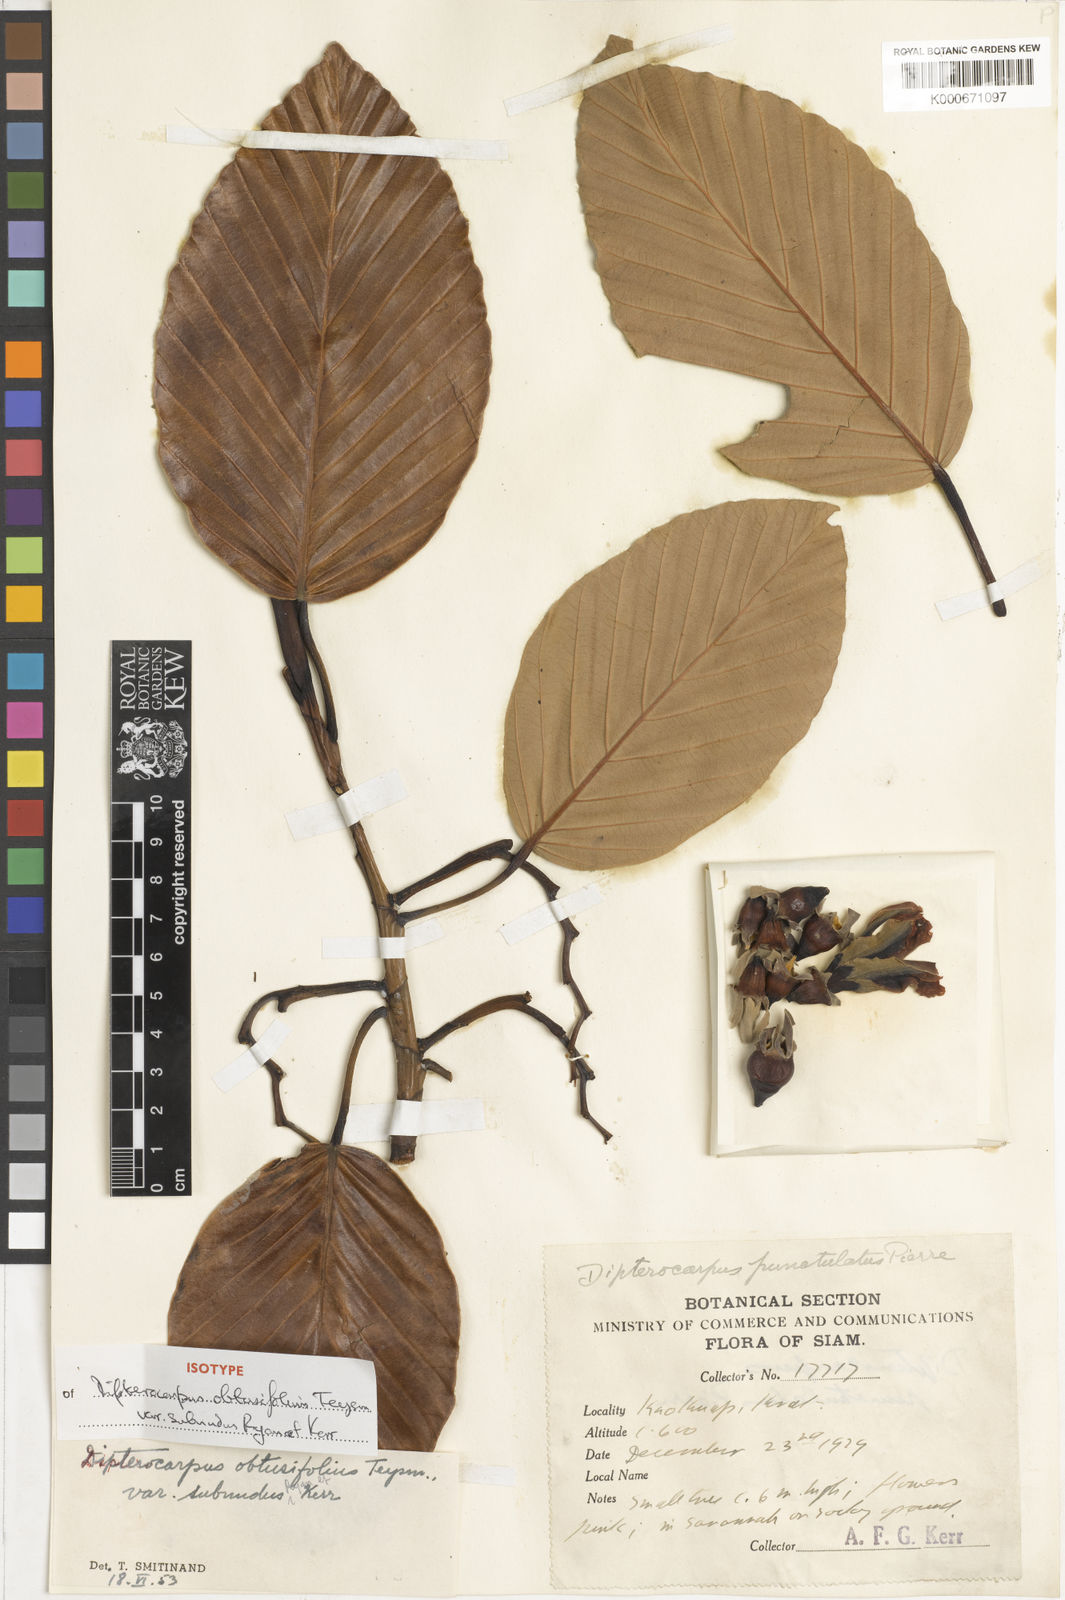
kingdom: Plantae
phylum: Tracheophyta
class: Magnoliopsida
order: Malvales
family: Dipterocarpaceae
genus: Dipterocarpus
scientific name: Dipterocarpus obtusifolius
